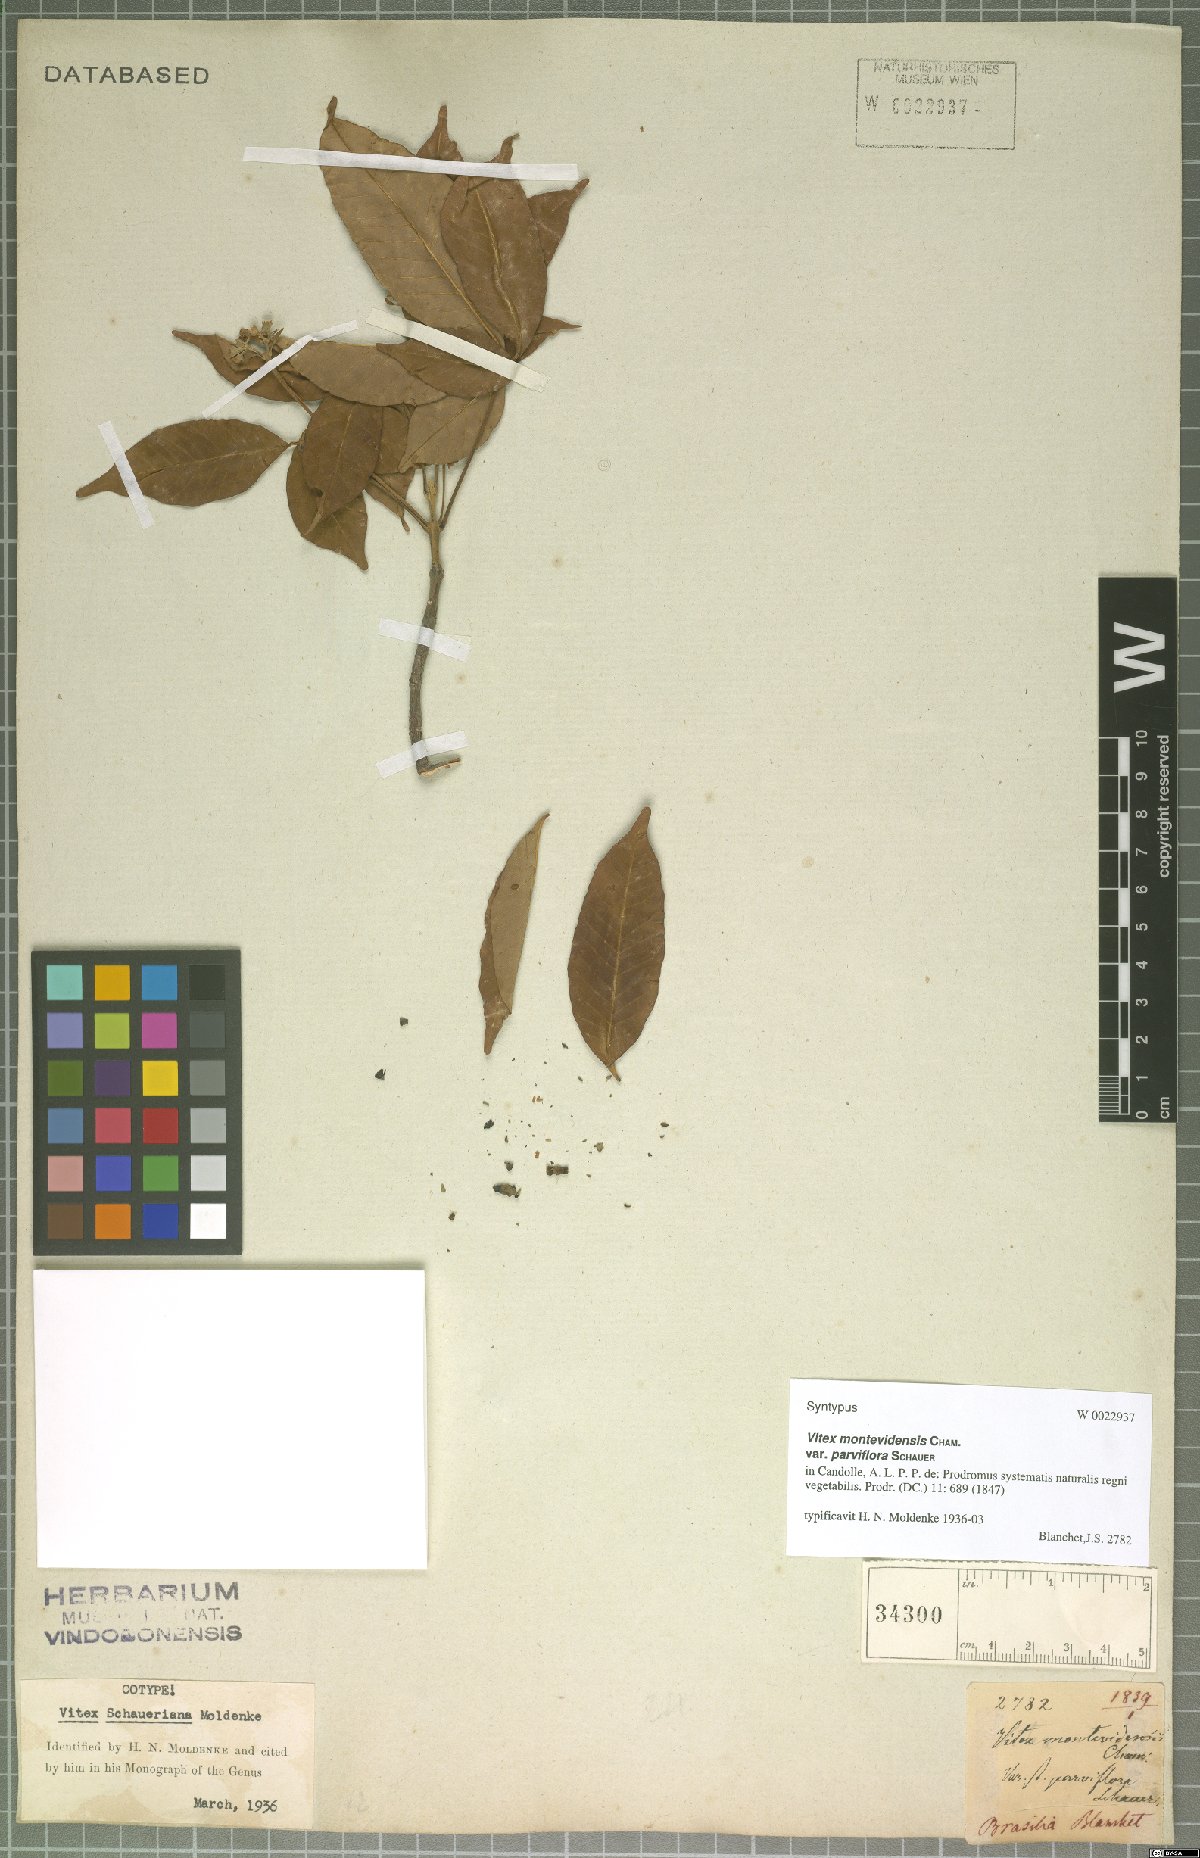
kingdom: Plantae
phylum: Tracheophyta
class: Magnoliopsida
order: Lamiales
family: Lamiaceae
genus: Vitex
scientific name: Vitex schaueriana
